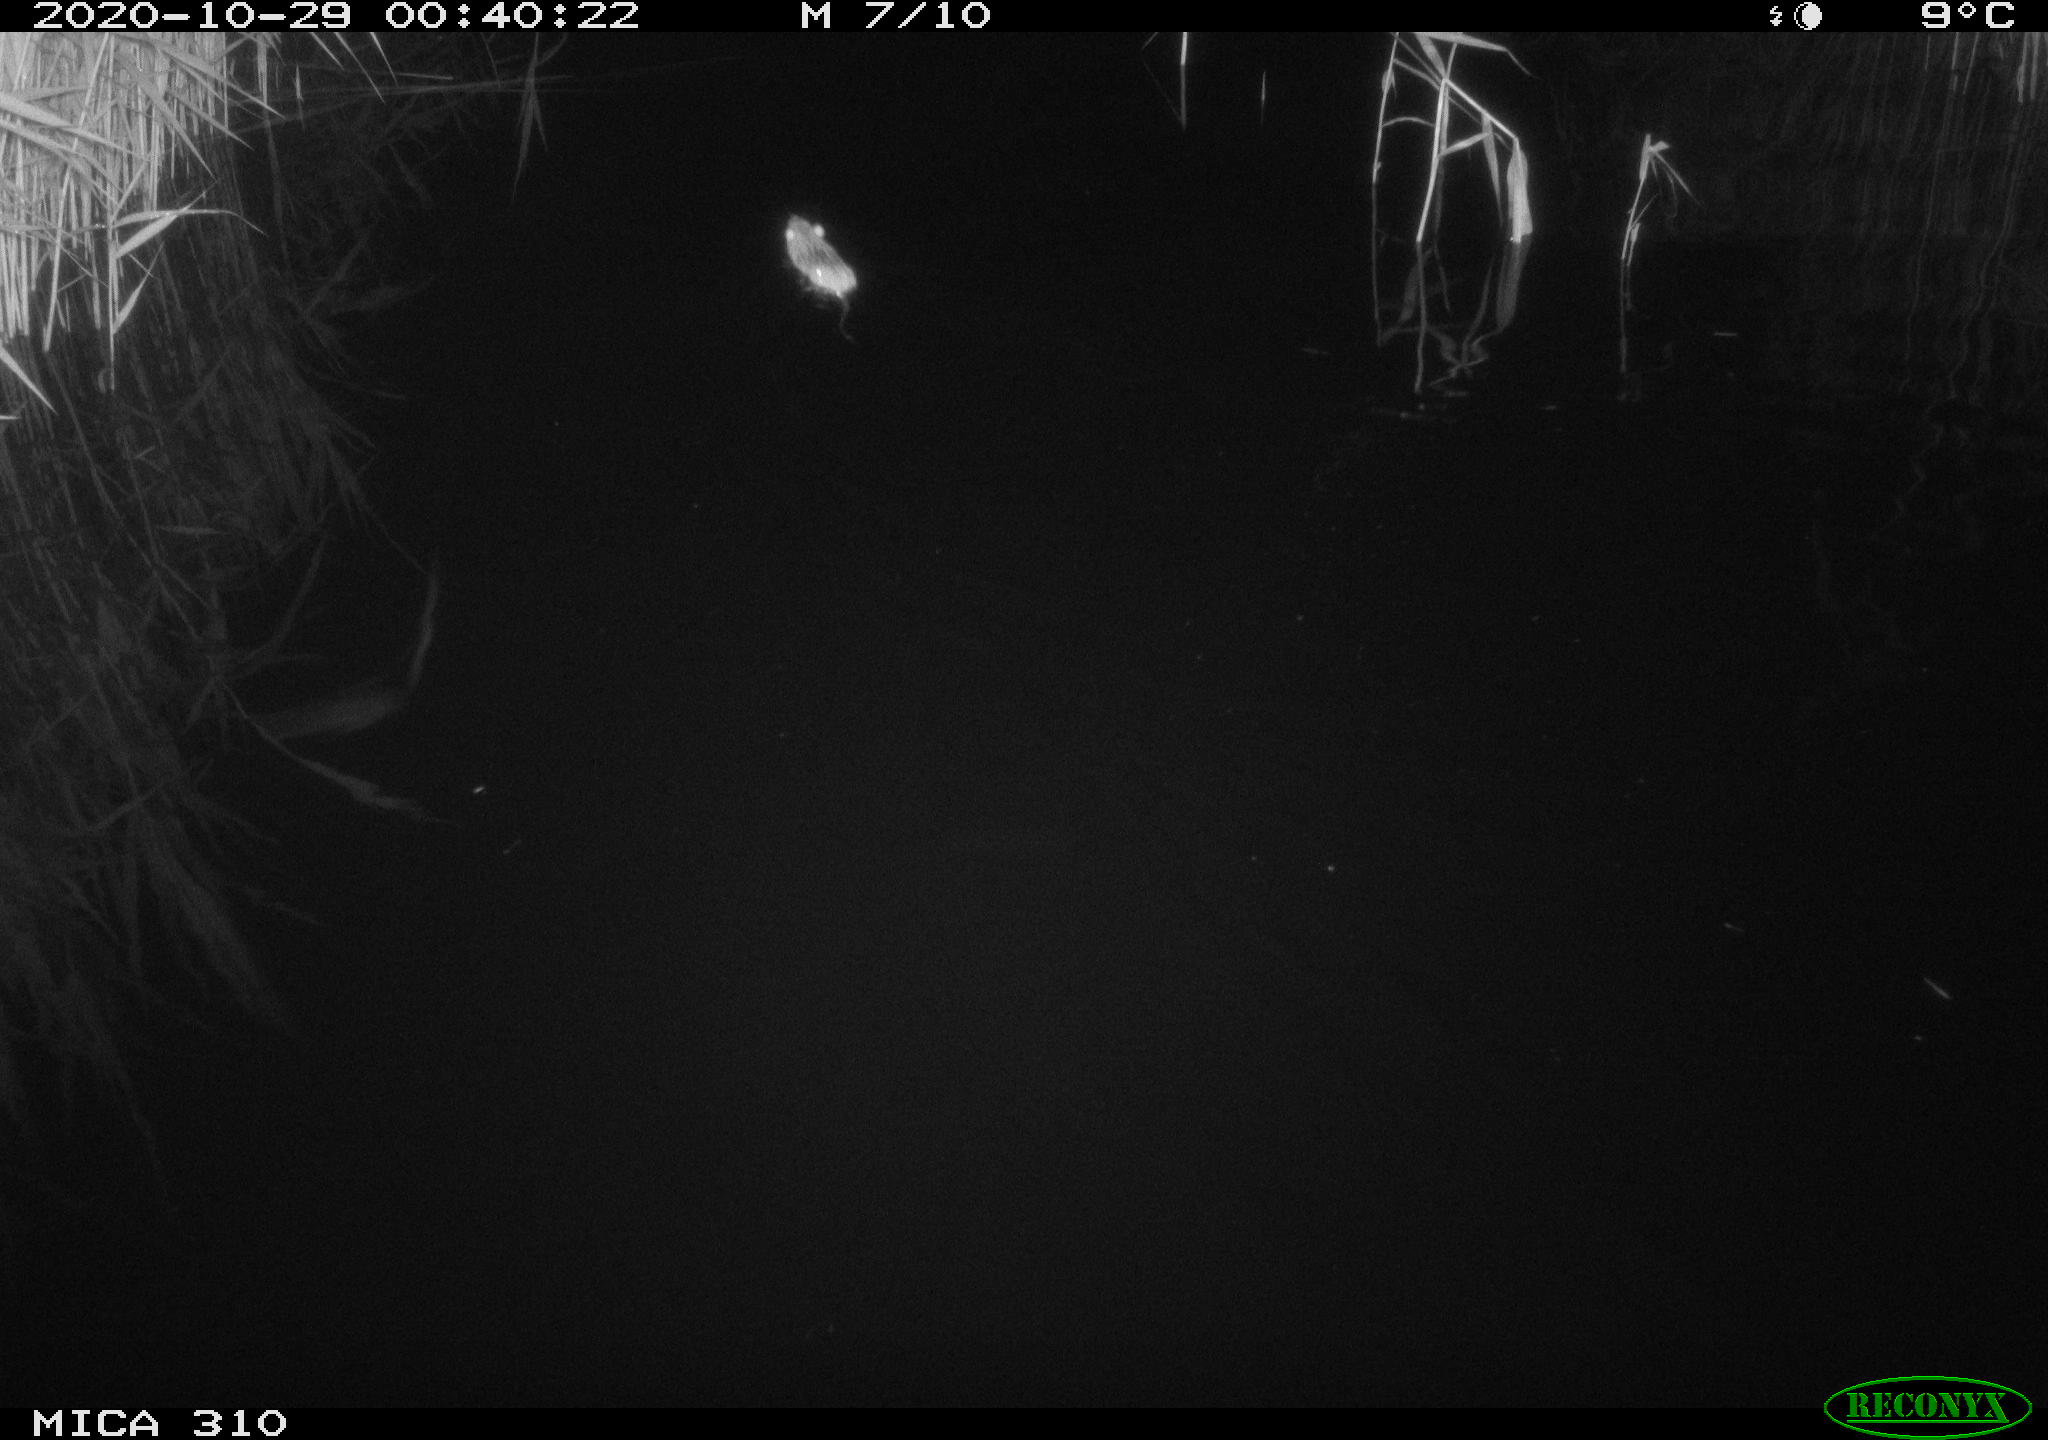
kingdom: Animalia
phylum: Chordata
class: Mammalia
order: Rodentia
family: Muridae
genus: Rattus
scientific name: Rattus norvegicus
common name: Brown rat
